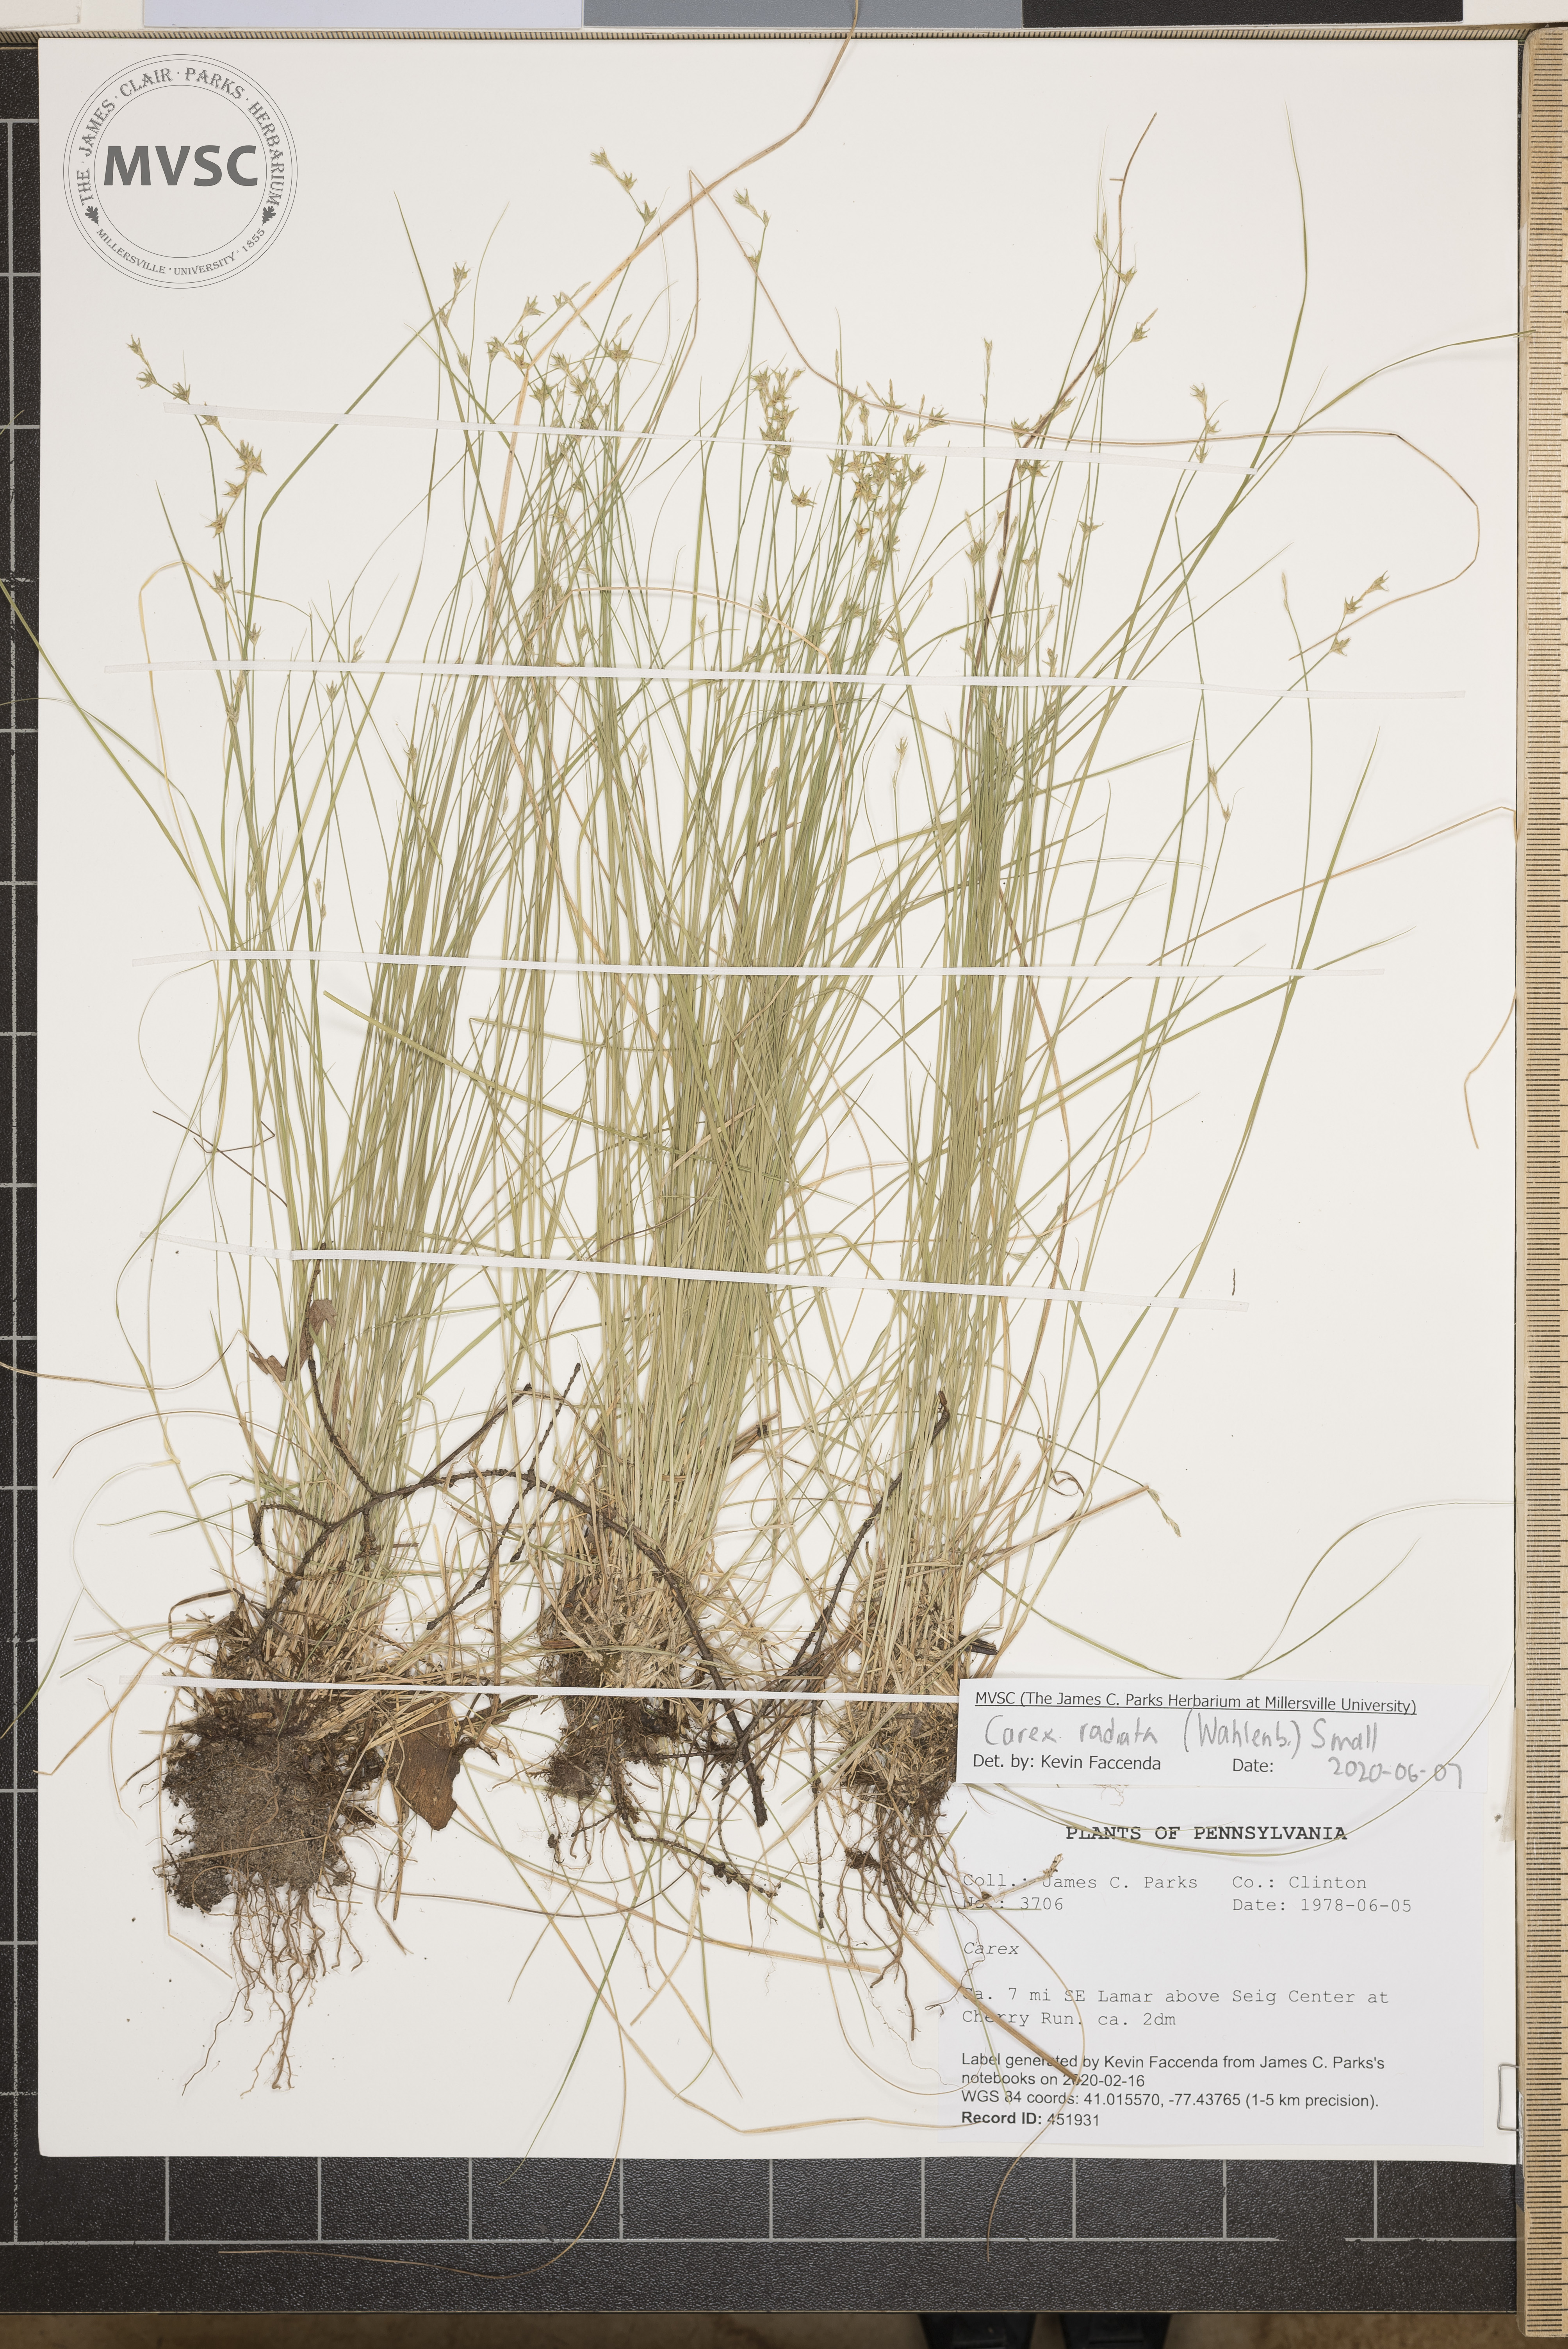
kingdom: Plantae
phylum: Tracheophyta
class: Liliopsida
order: Poales
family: Cyperaceae
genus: Carex
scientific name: Carex radiata
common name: Eastern star sedge
